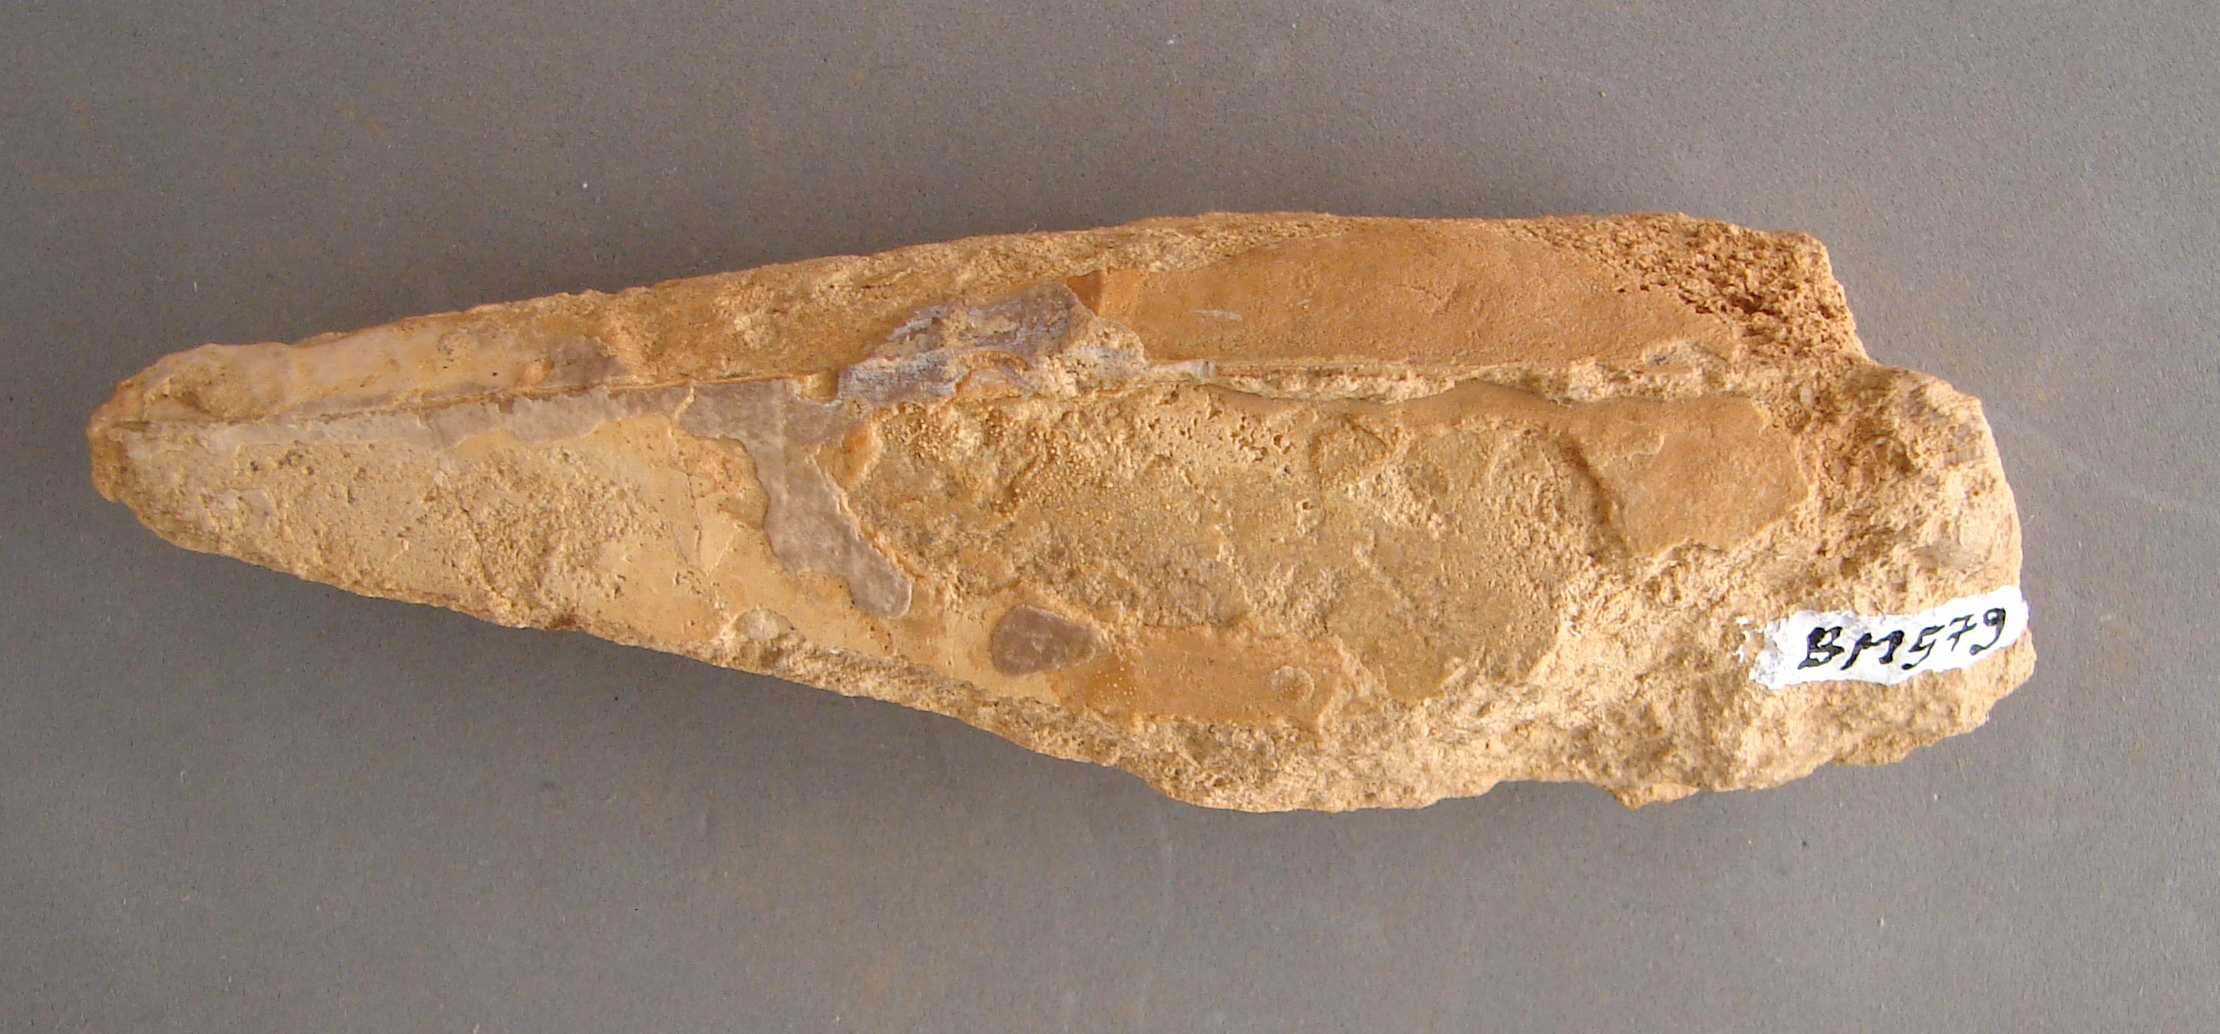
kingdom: Animalia
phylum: Mollusca
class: Bivalvia
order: Ostreida
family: Pinnidae
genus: Pinna
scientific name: Pinna
